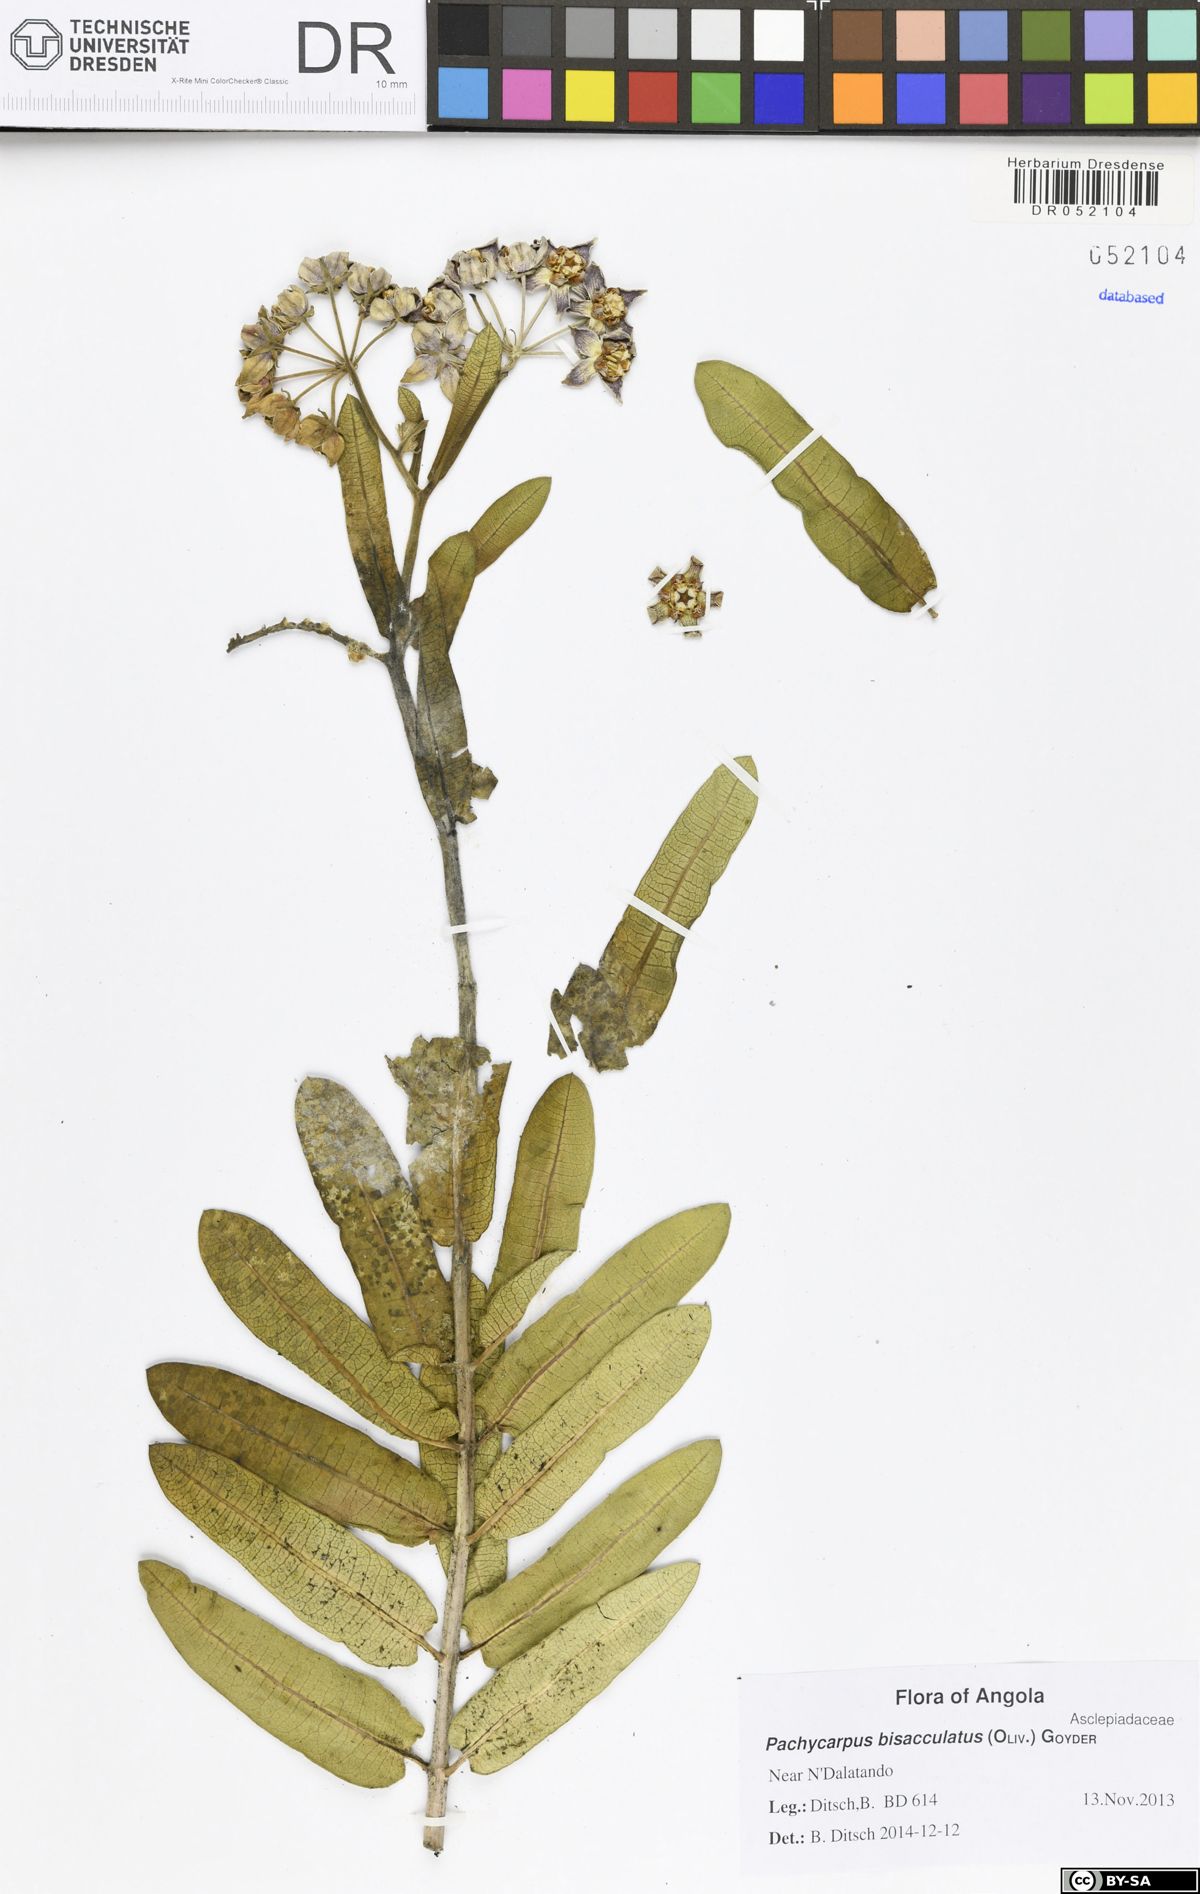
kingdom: Plantae
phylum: Tracheophyta
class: Magnoliopsida
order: Gentianales
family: Apocynaceae
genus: Pachycarpus
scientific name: Pachycarpus bisacculatus
